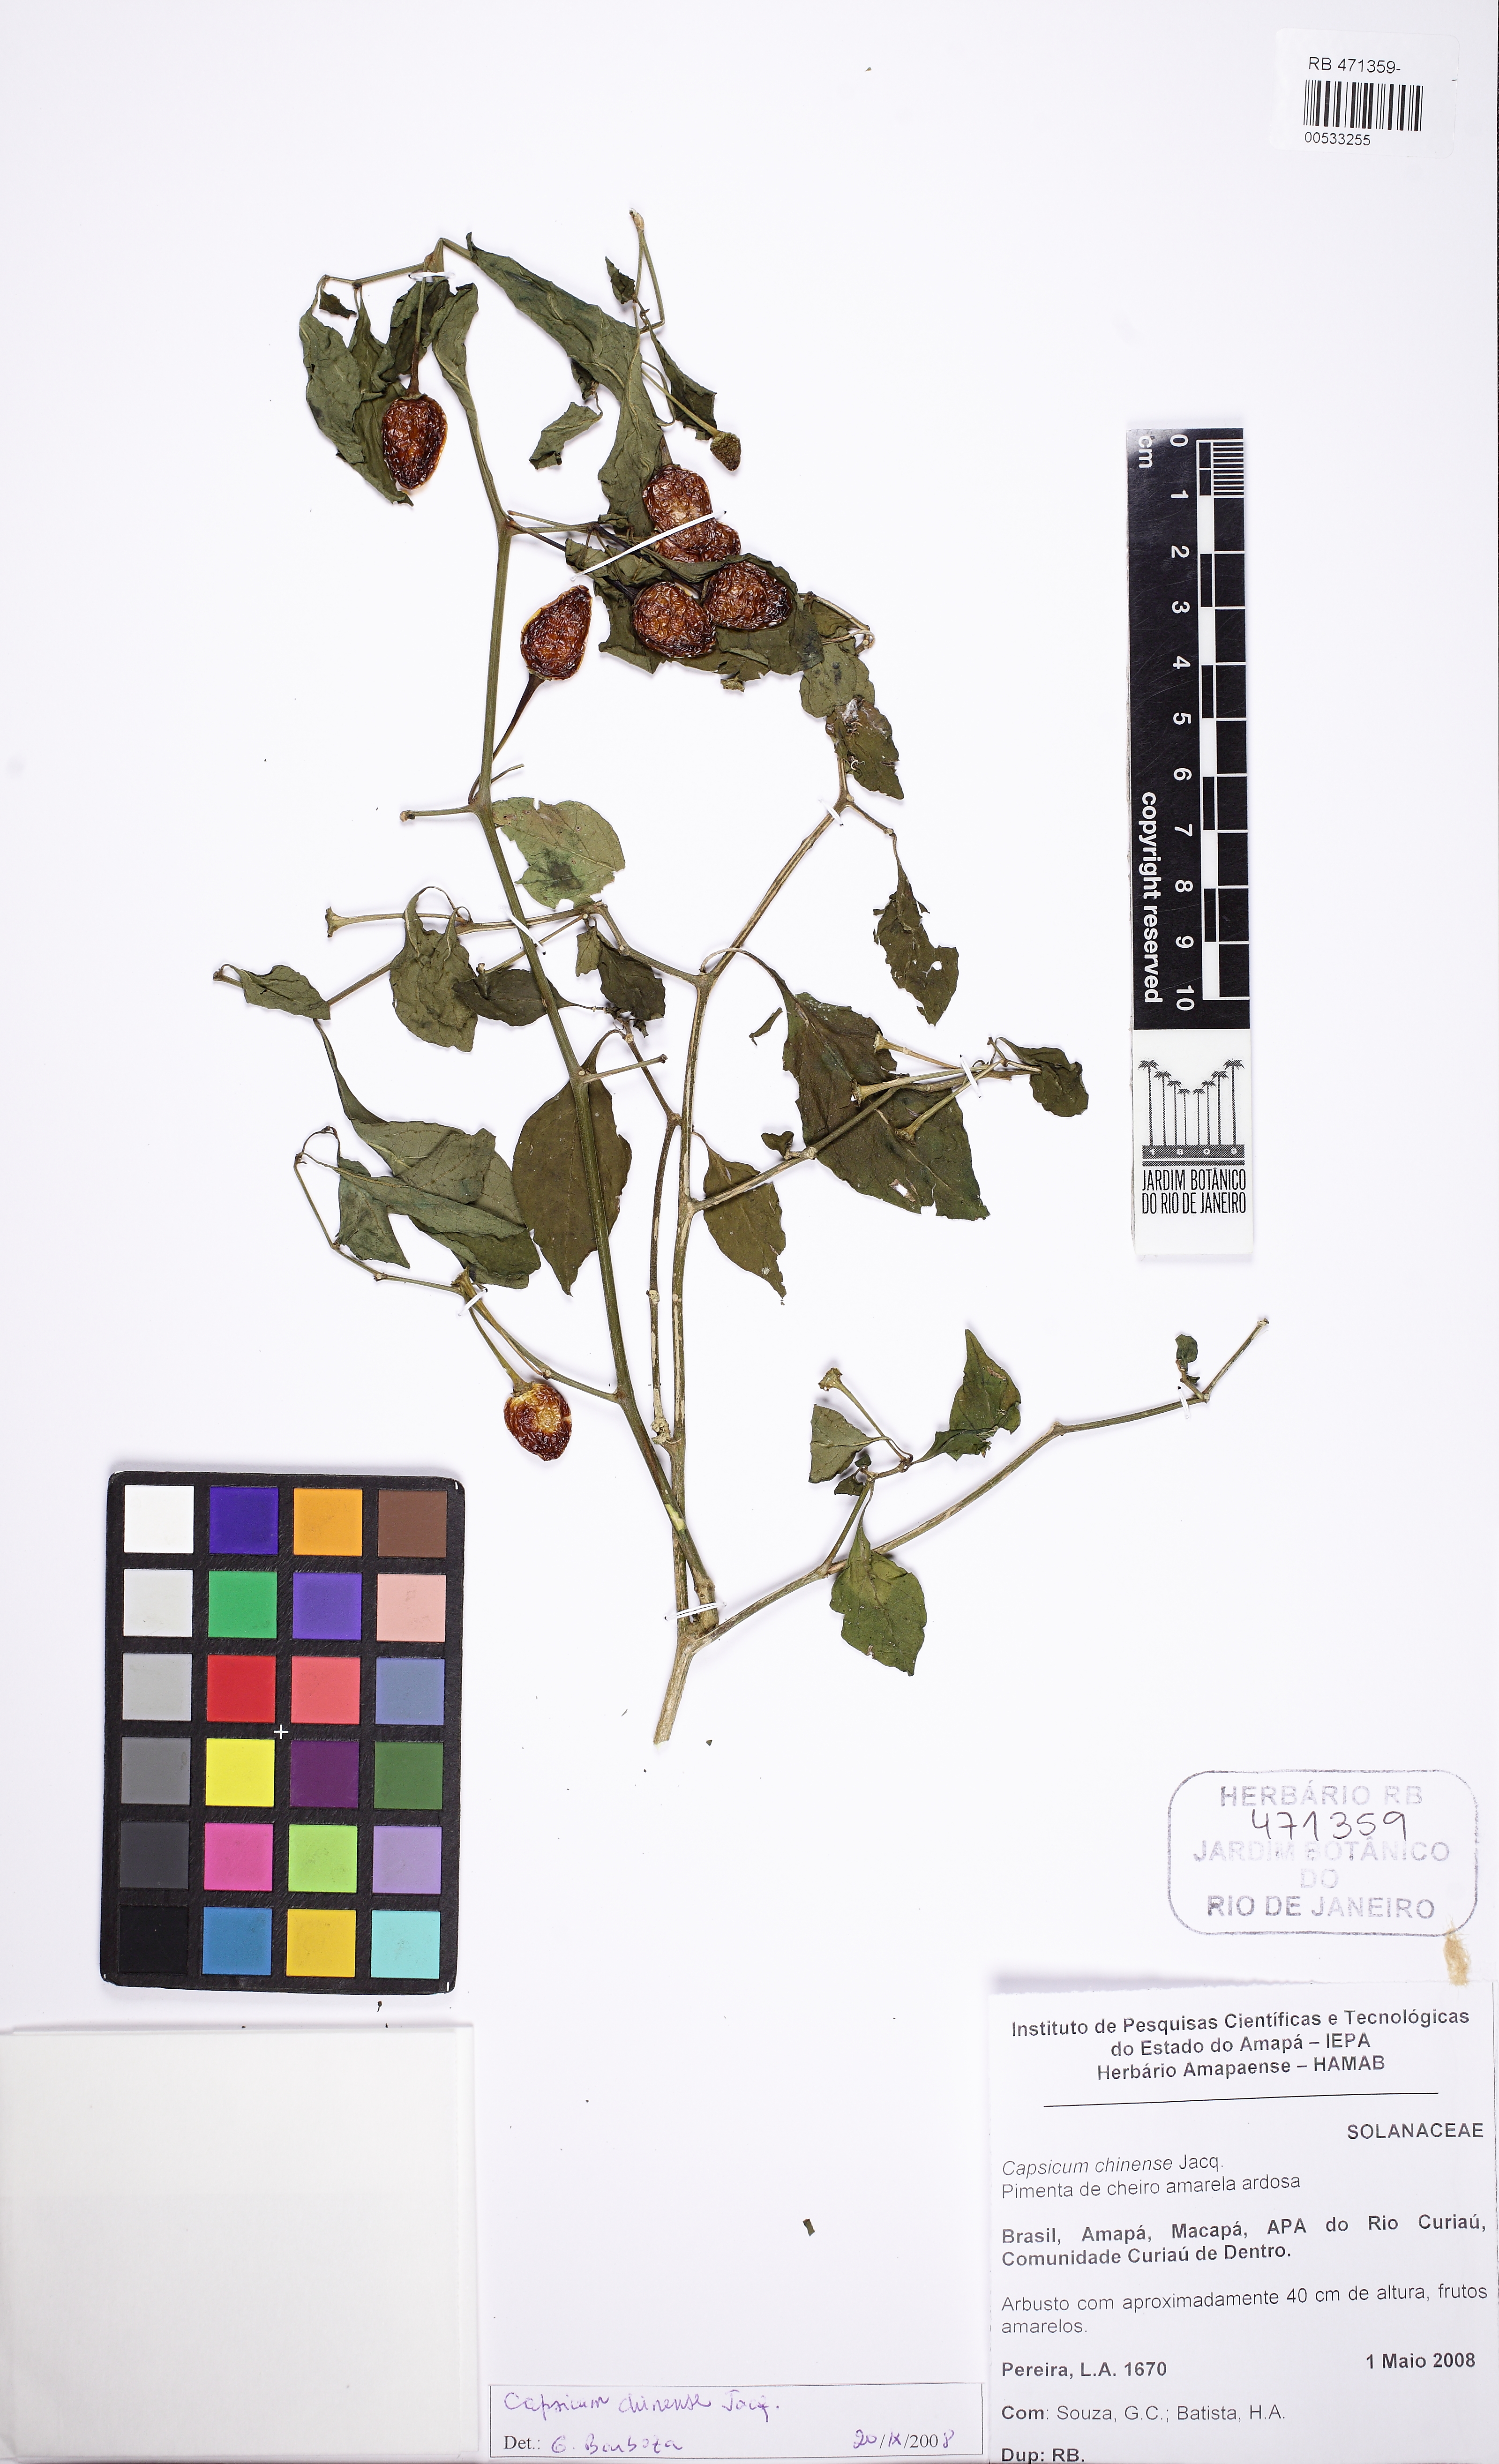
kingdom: Plantae
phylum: Tracheophyta
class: Magnoliopsida
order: Solanales
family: Solanaceae
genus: Capsicum
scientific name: Capsicum chinense
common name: Yellow squash pepper
